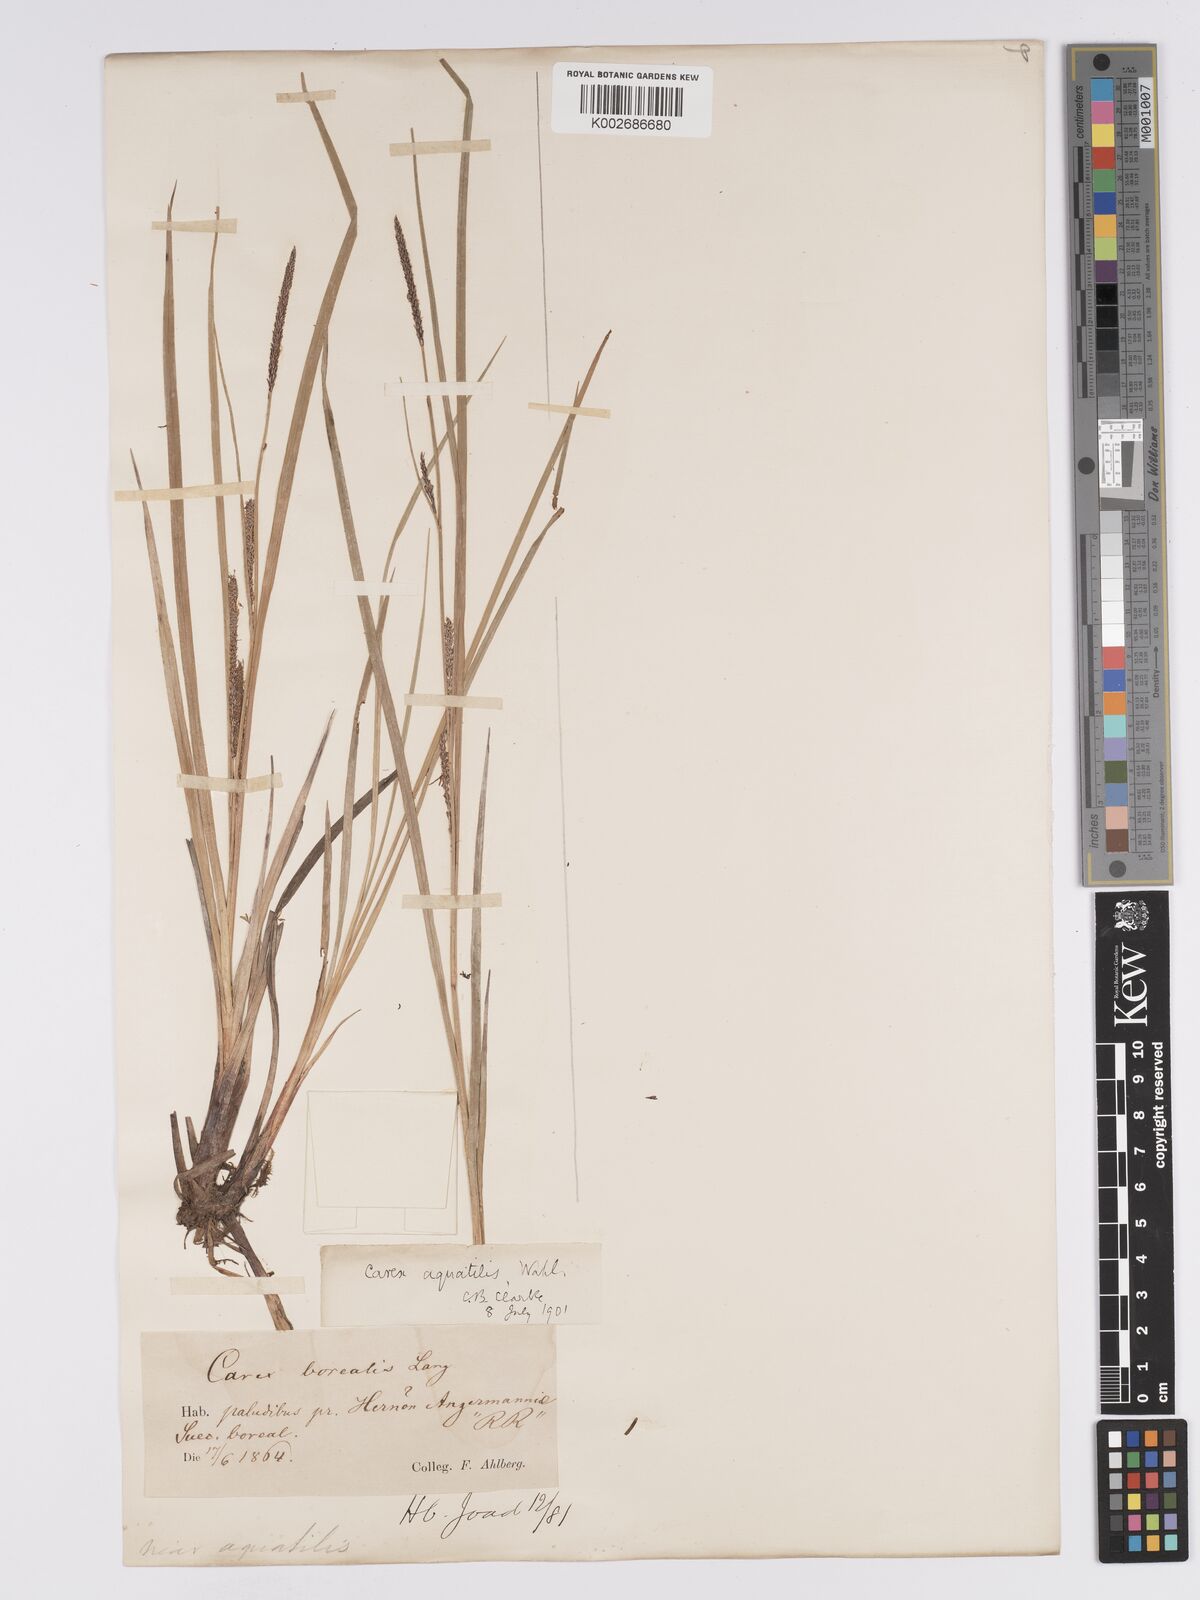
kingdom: Plantae
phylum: Tracheophyta
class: Liliopsida
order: Poales
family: Cyperaceae
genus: Carex
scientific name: Carex aquatilis
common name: Water sedge
